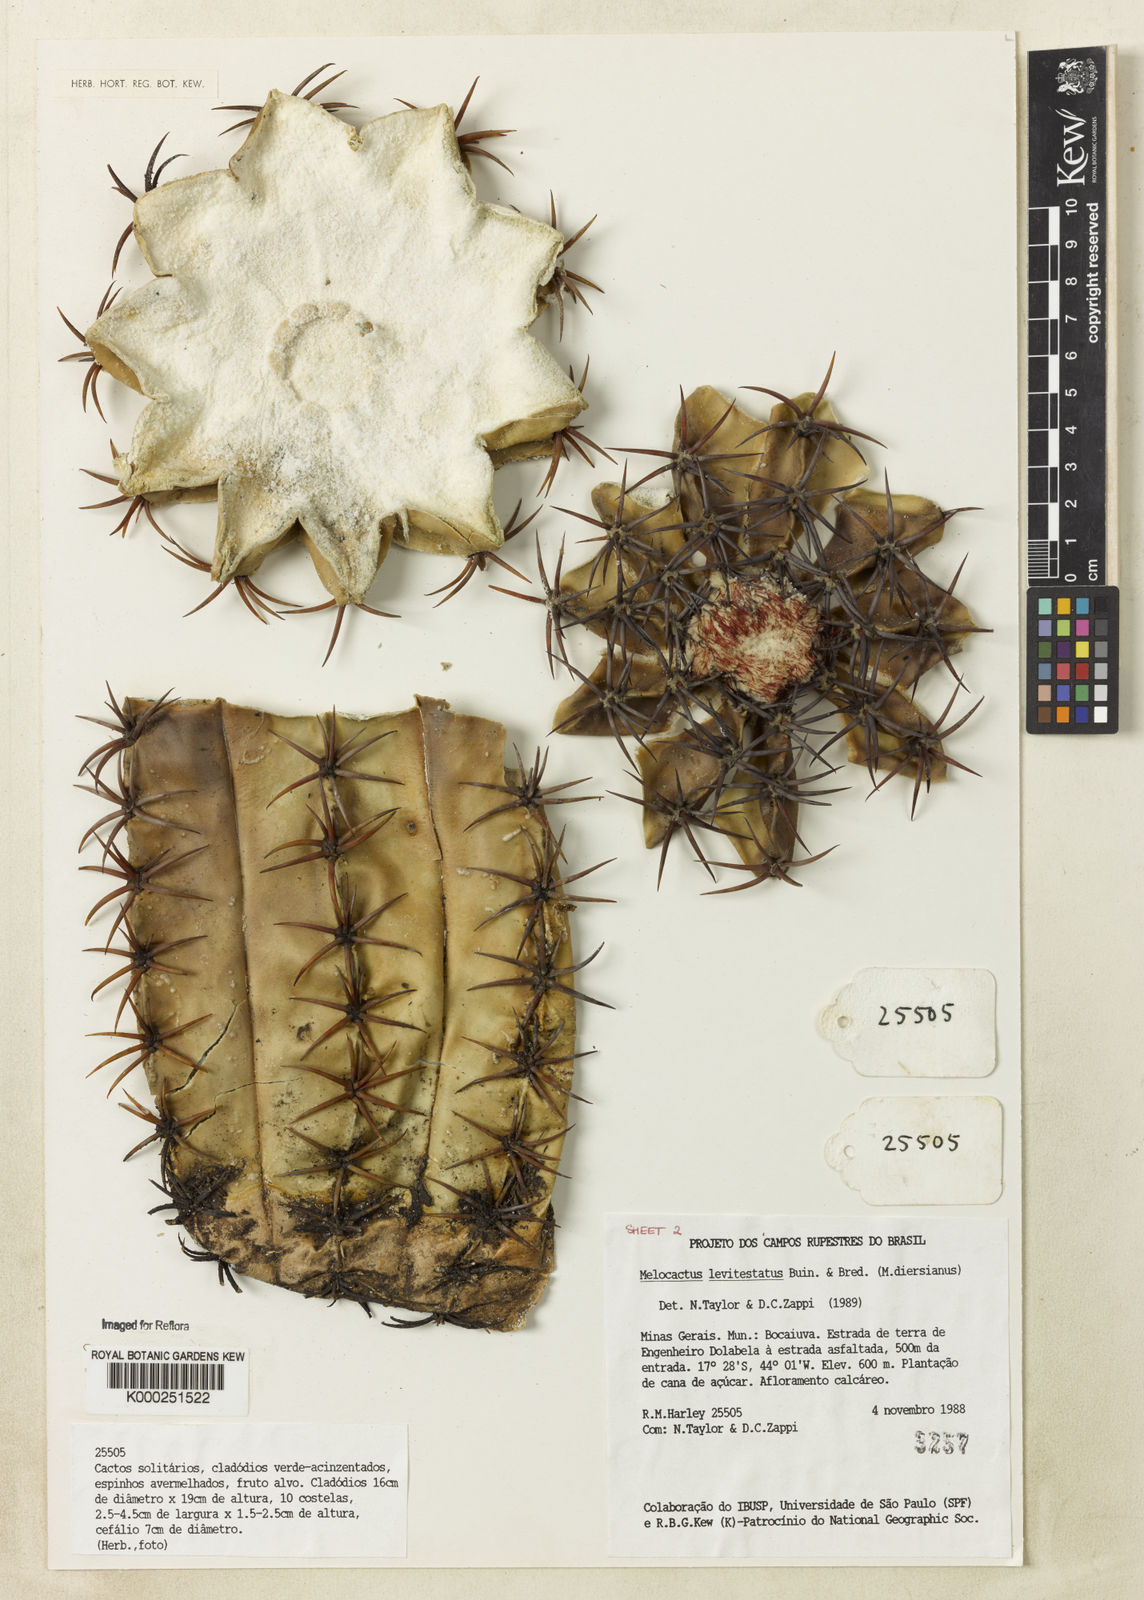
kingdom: Plantae
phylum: Tracheophyta
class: Magnoliopsida
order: Caryophyllales
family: Cactaceae
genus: Melocactus
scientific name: Melocactus levitestatus
